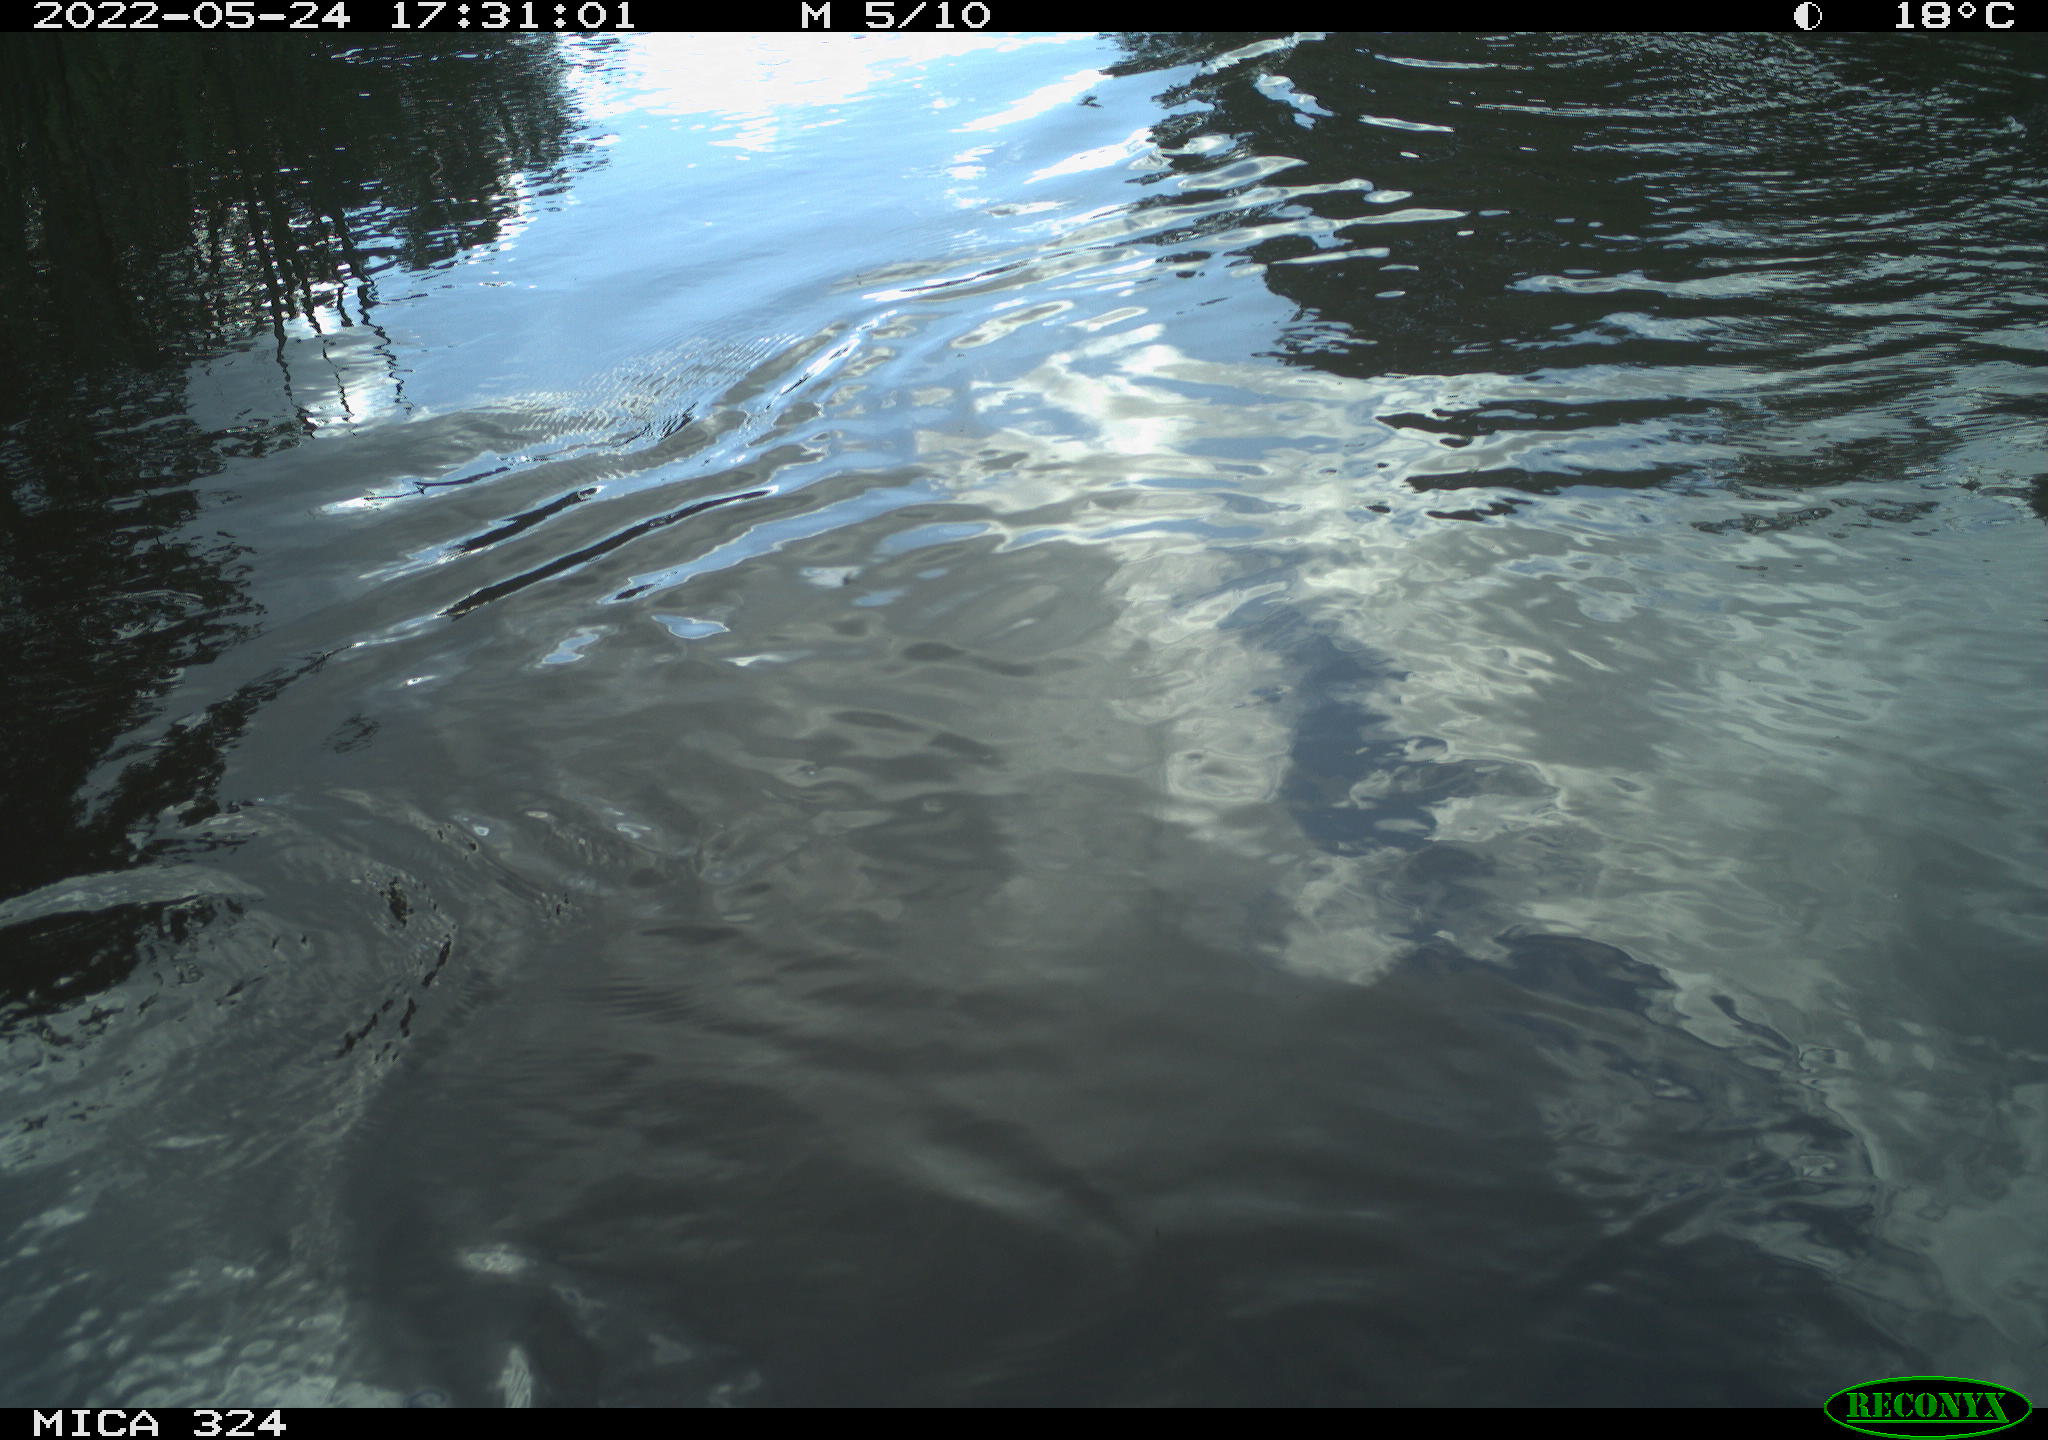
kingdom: Animalia
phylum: Chordata
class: Mammalia
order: Rodentia
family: Cricetidae
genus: Ondatra
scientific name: Ondatra zibethicus
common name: Muskrat
